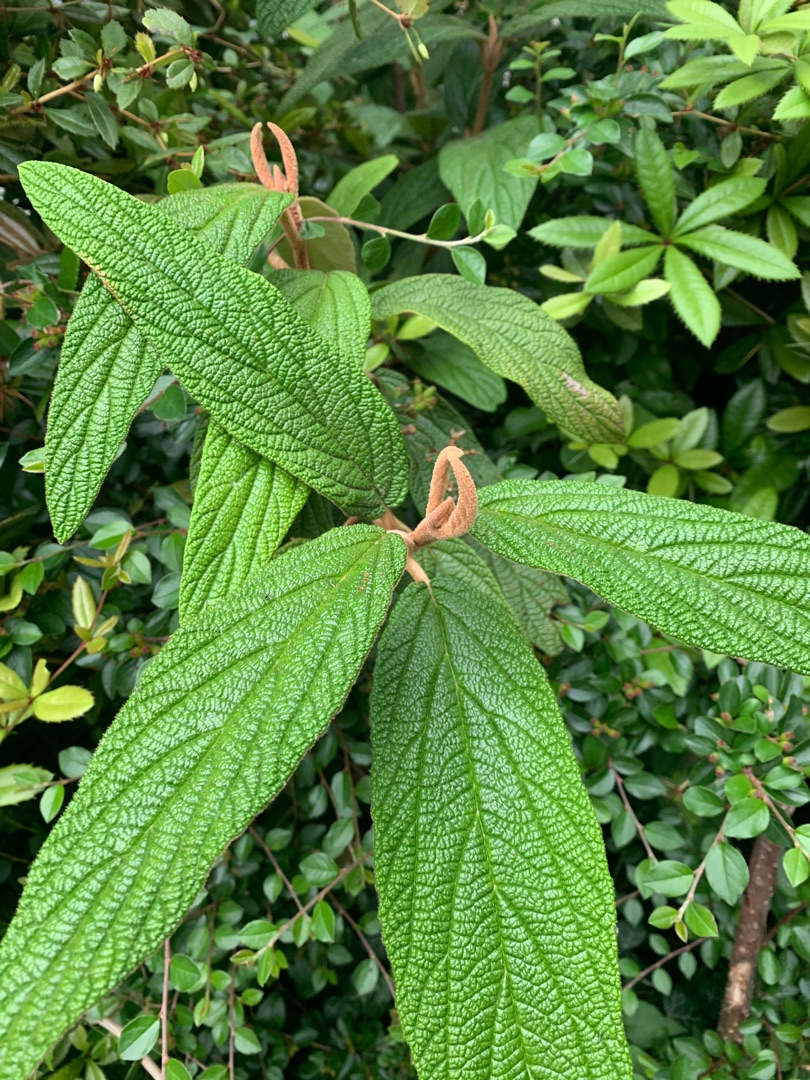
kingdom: Plantae
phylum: Tracheophyta
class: Magnoliopsida
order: Dipsacales
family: Viburnaceae
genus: Viburnum
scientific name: Viburnum rhytidophyllum
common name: Rynkeblad
